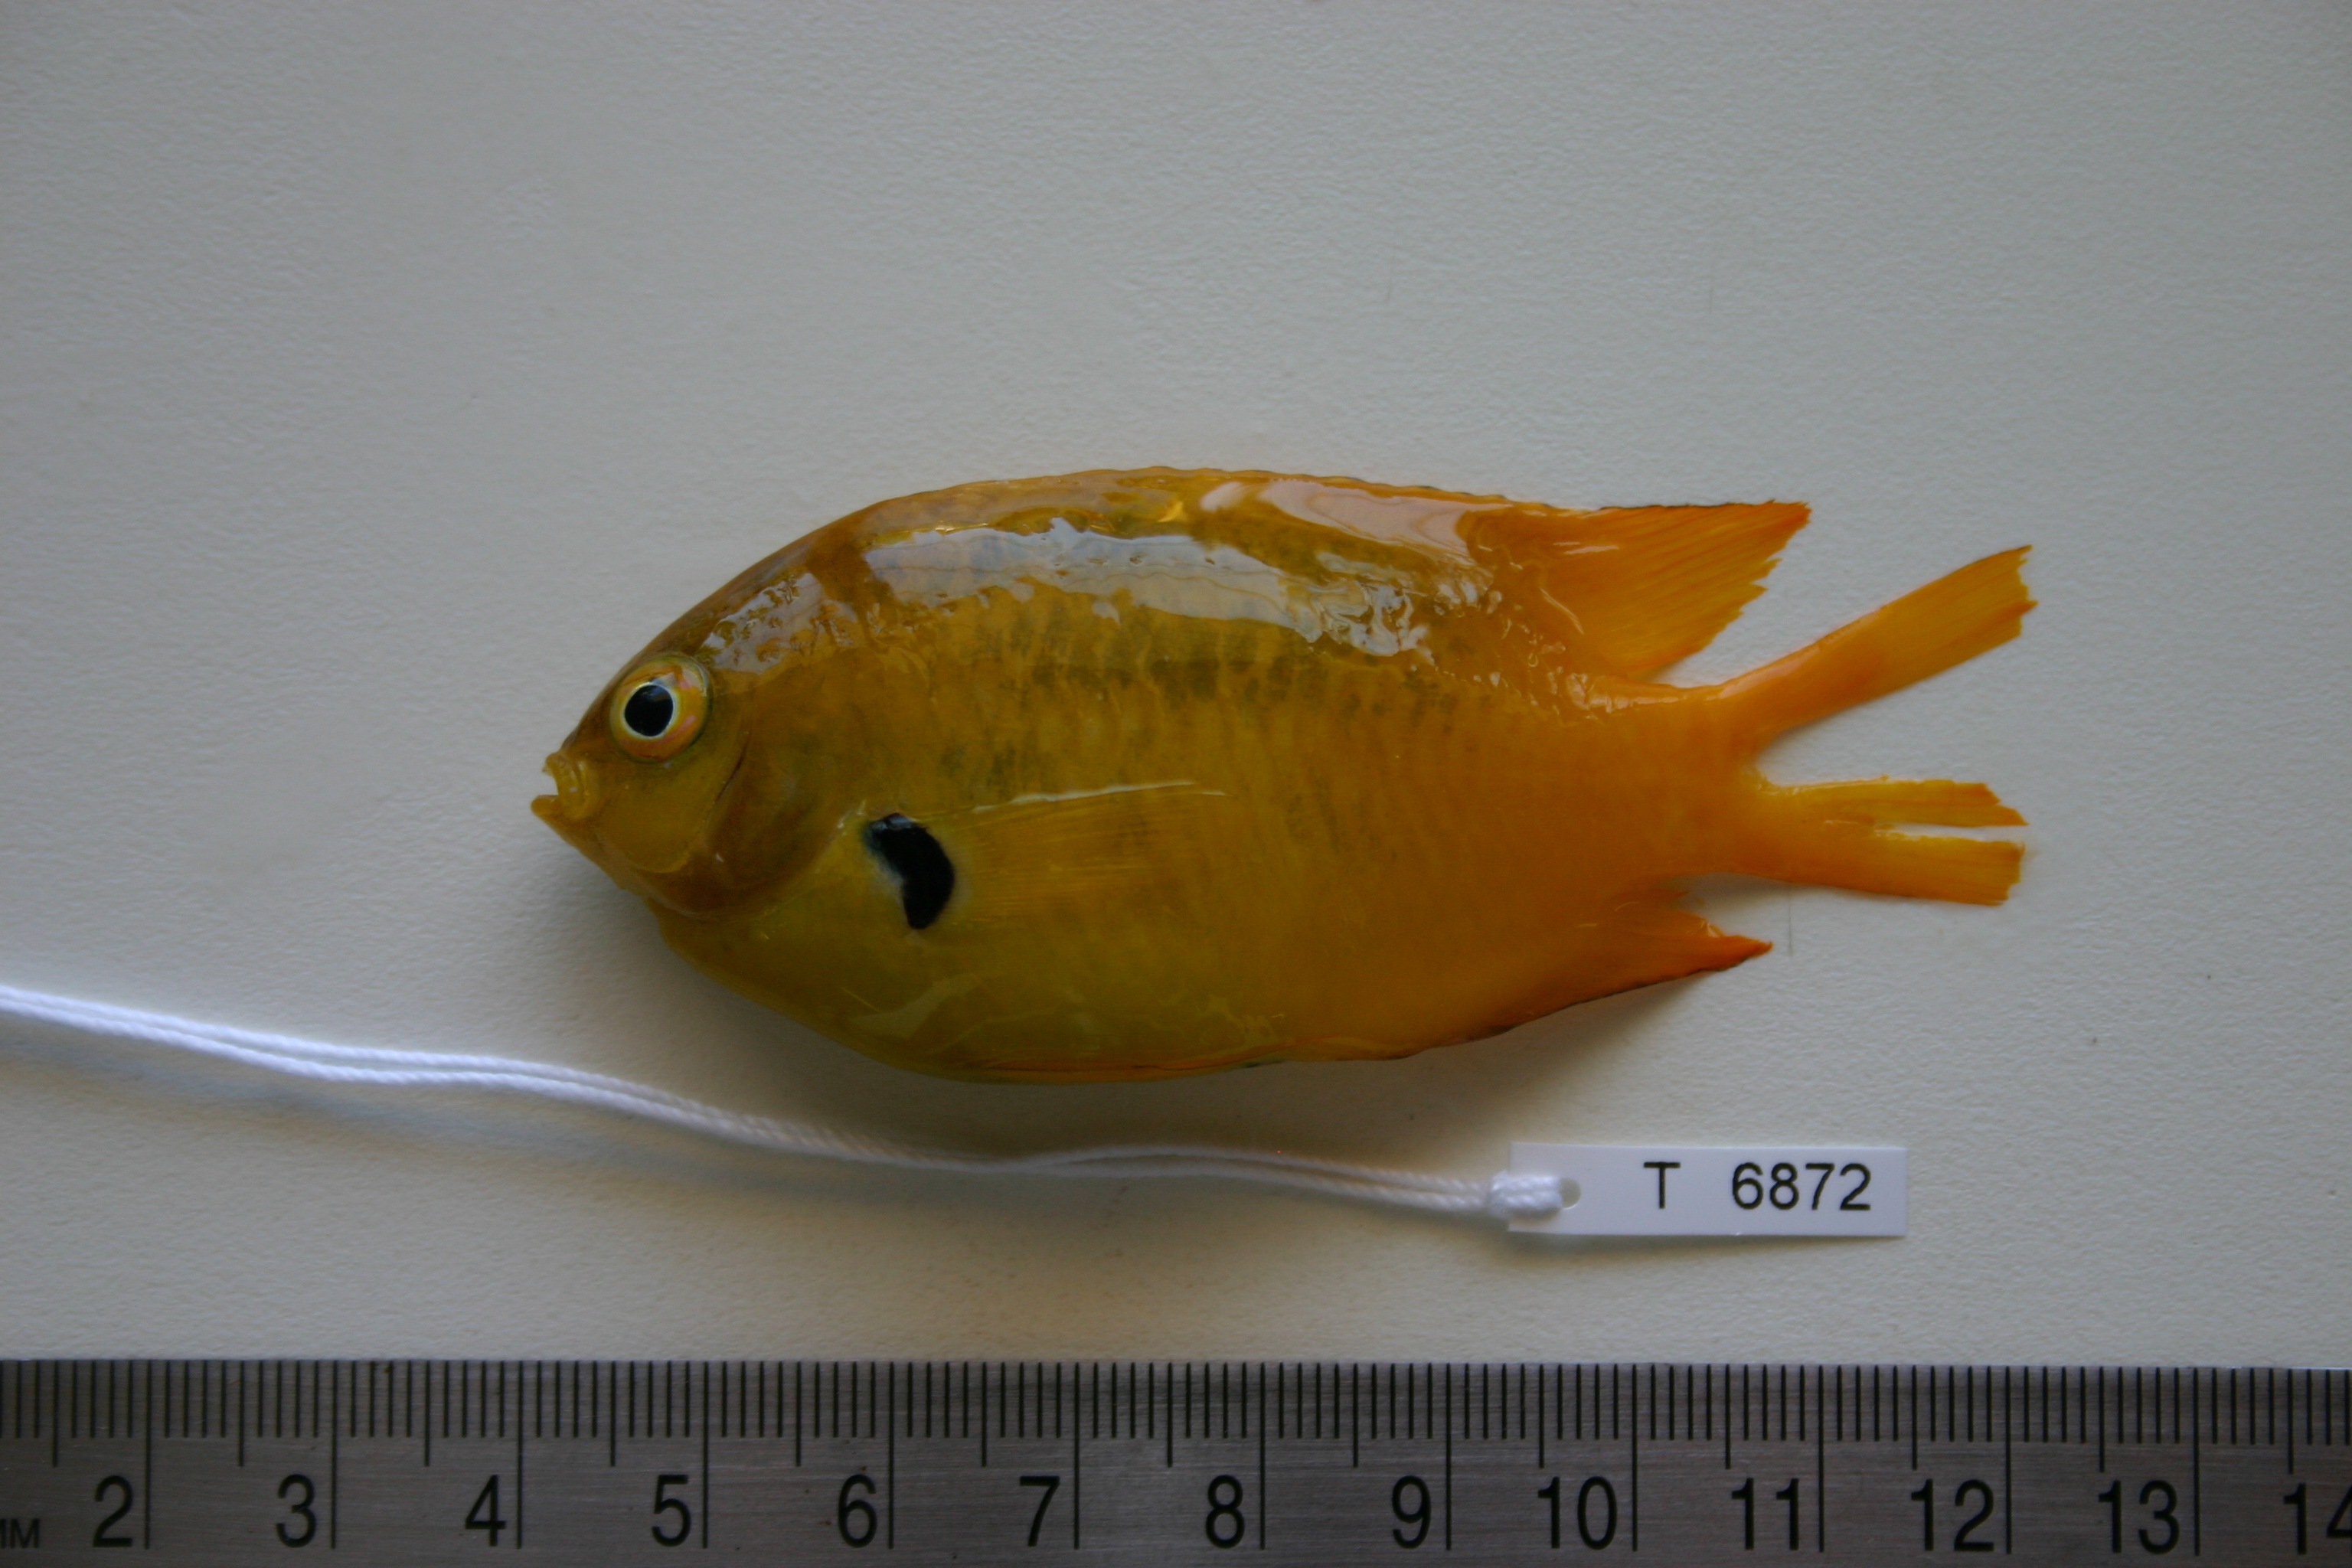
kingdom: Animalia
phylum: Chordata
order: Perciformes
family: Pomacentridae
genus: Pomacentrus
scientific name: Pomacentrus sulfureus
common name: Sulfur damsel
